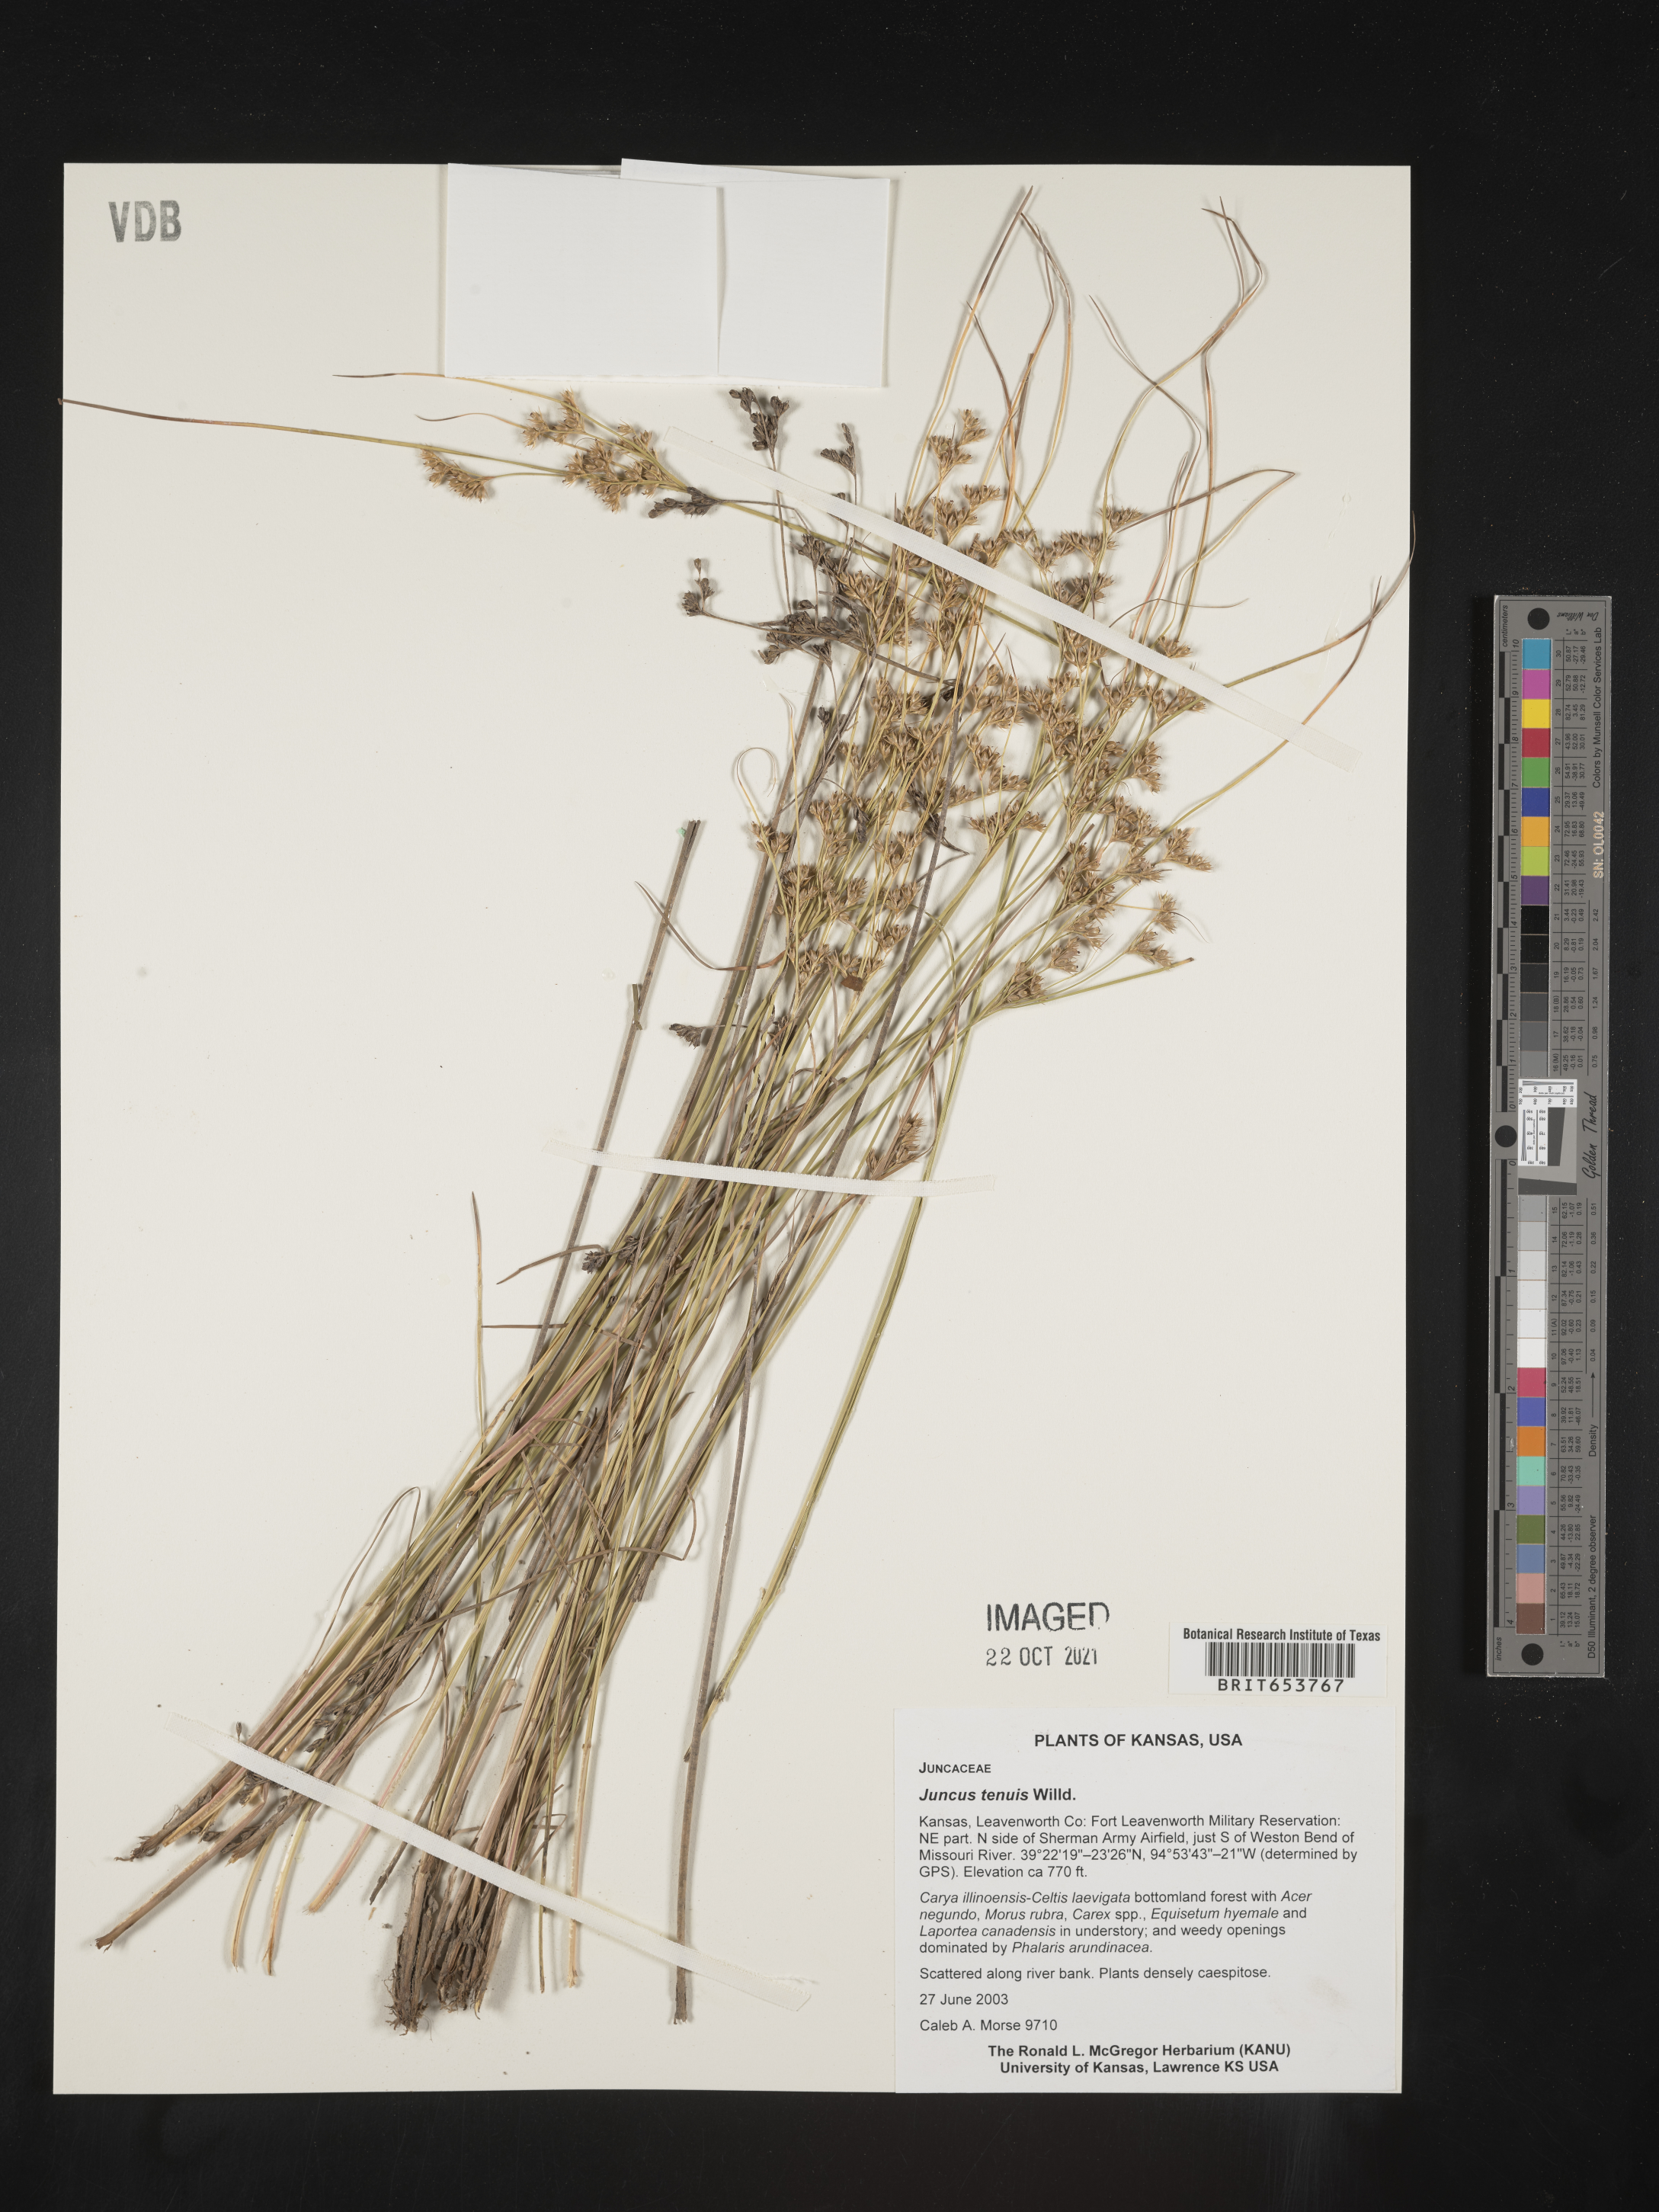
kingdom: Plantae
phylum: Tracheophyta
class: Liliopsida
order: Poales
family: Juncaceae
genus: Juncus
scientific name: Juncus tenuis
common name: Slender rush
